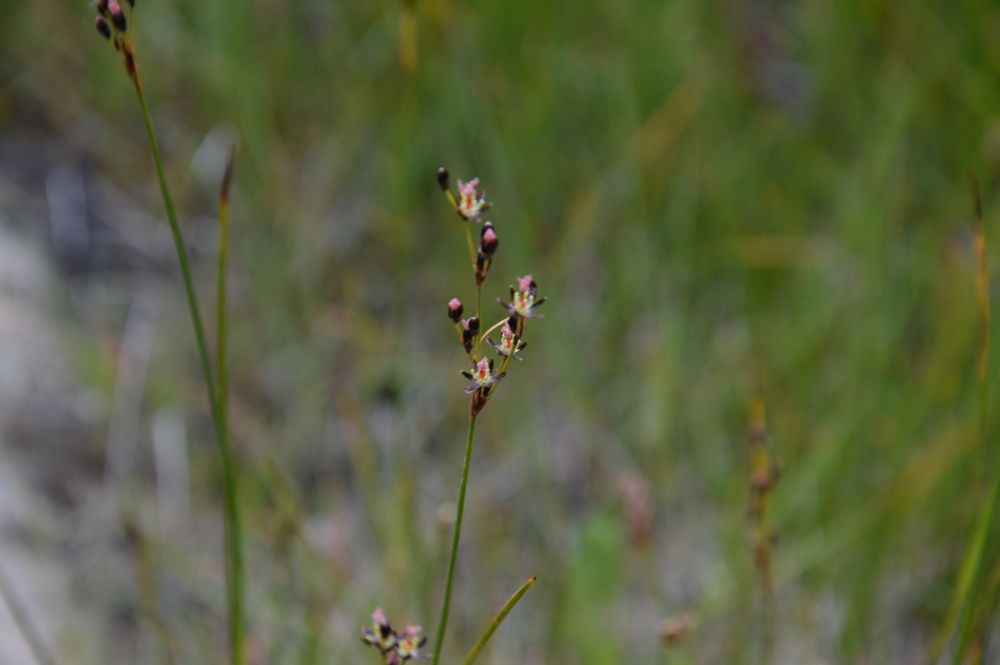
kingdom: Plantae
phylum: Tracheophyta
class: Liliopsida
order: Poales
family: Juncaceae
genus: Juncus
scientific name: Juncus gerardi
